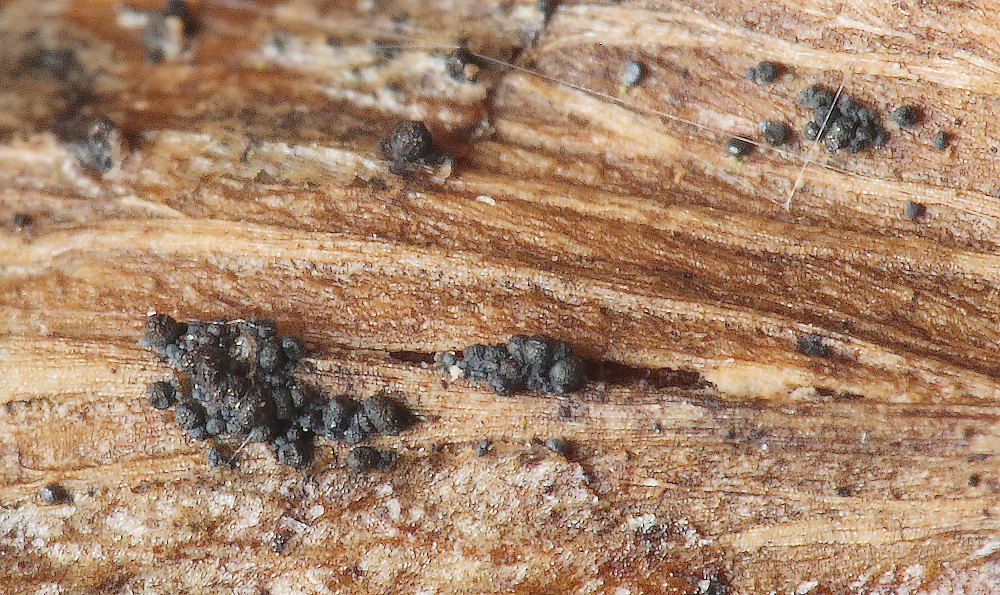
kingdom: Fungi
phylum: Ascomycota
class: Sordariomycetes
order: Hypocreales
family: Nectriaceae
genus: Gibberella
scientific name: Gibberella
